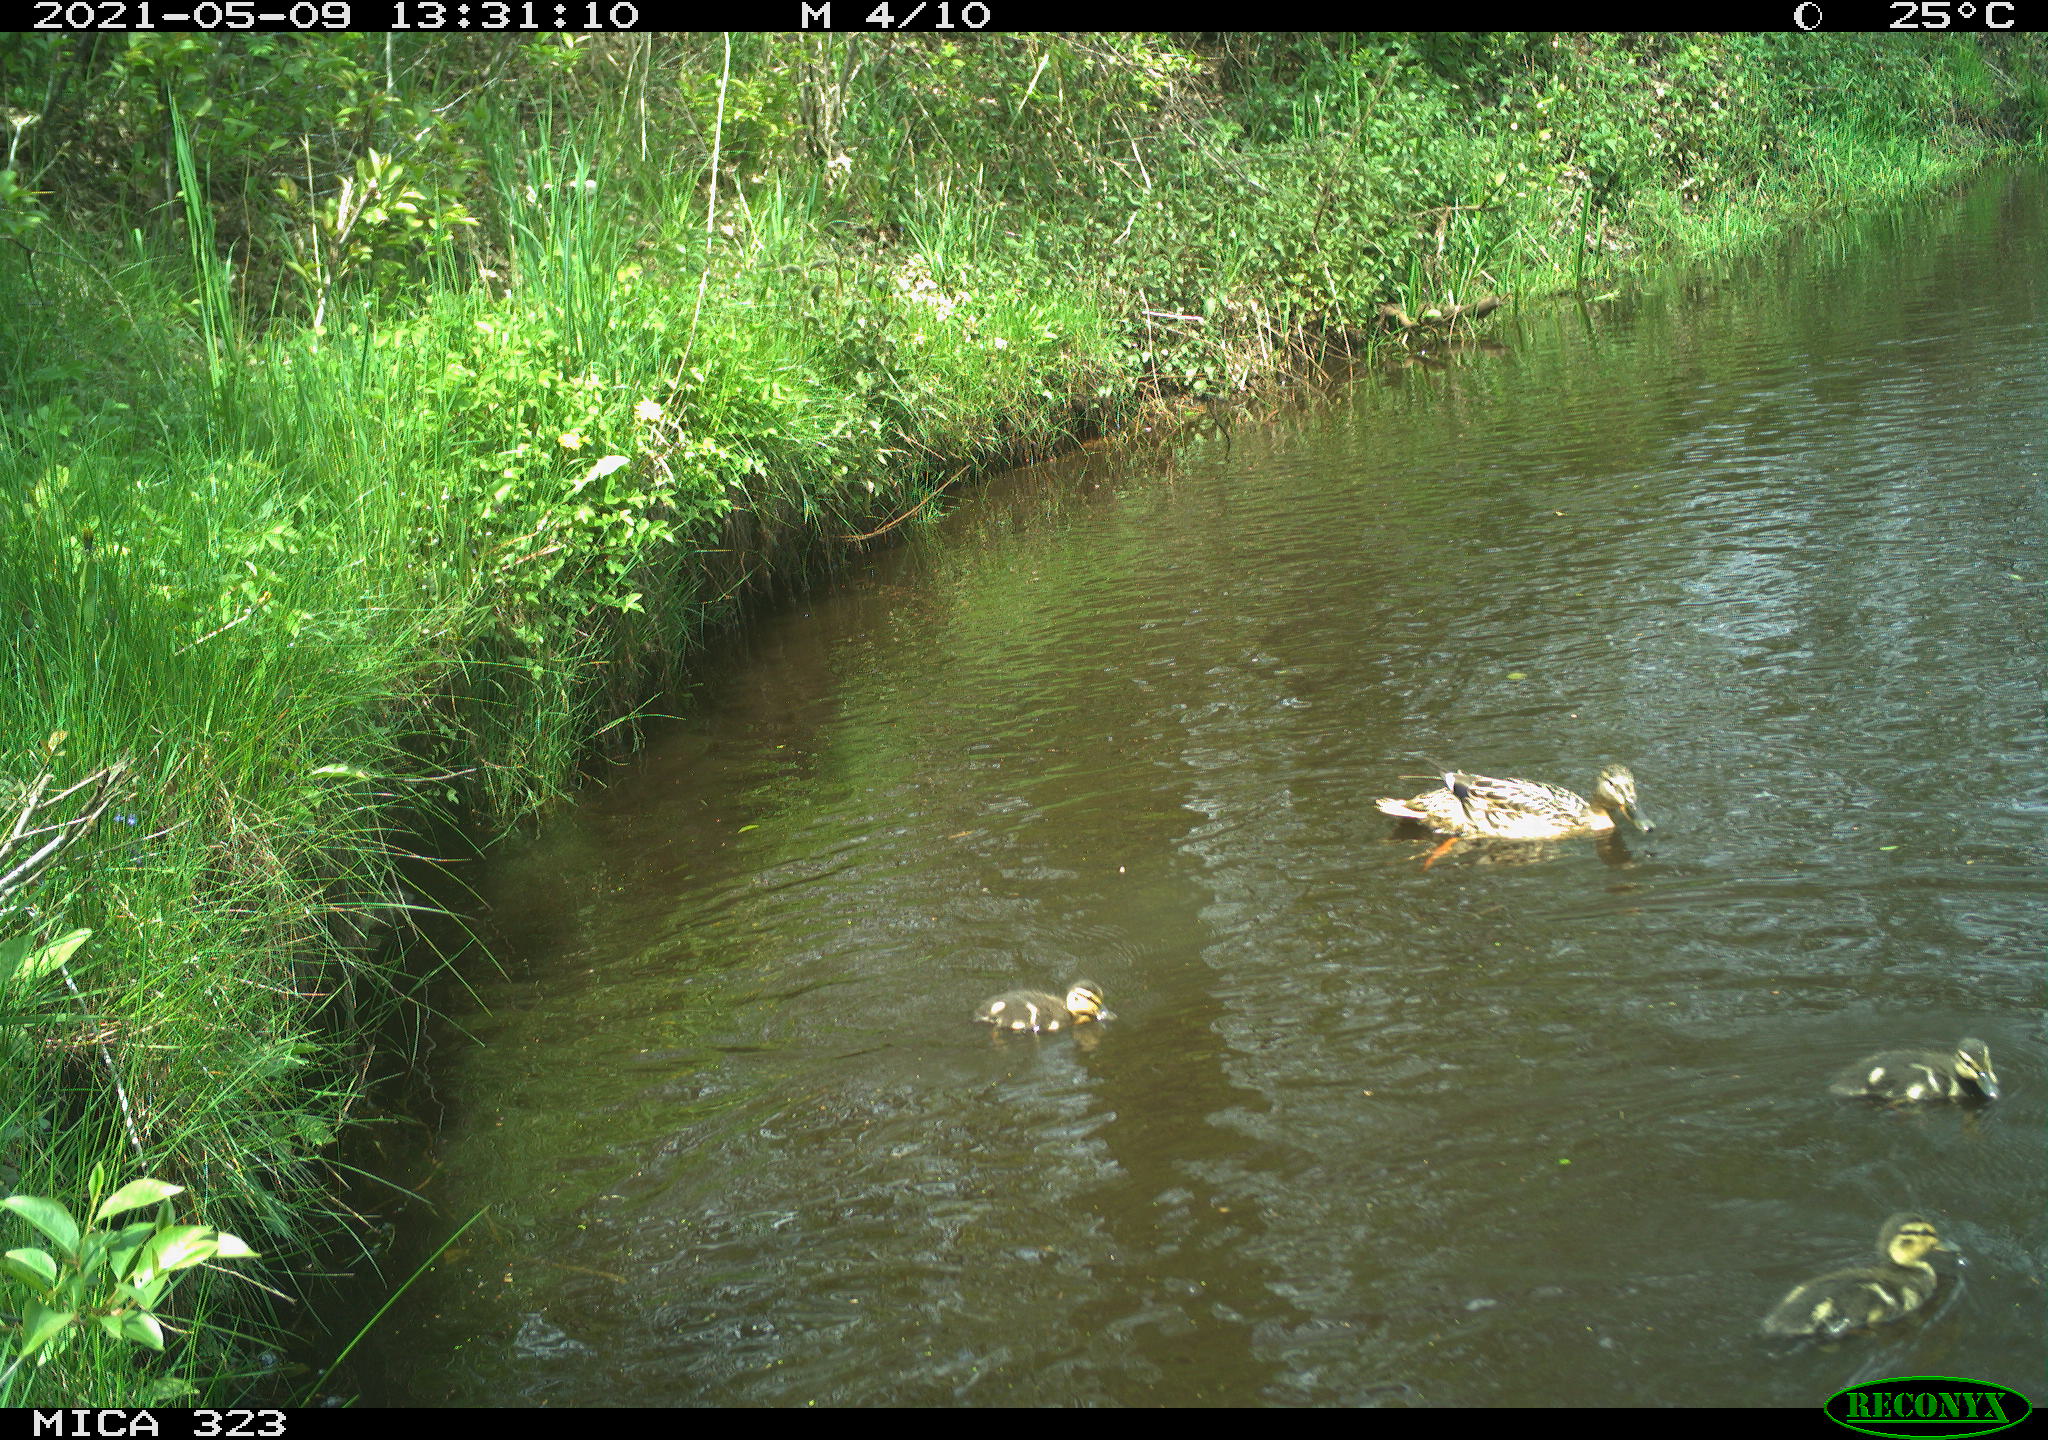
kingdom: Animalia
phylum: Chordata
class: Aves
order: Anseriformes
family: Anatidae
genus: Anas
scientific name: Anas platyrhynchos
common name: Mallard
